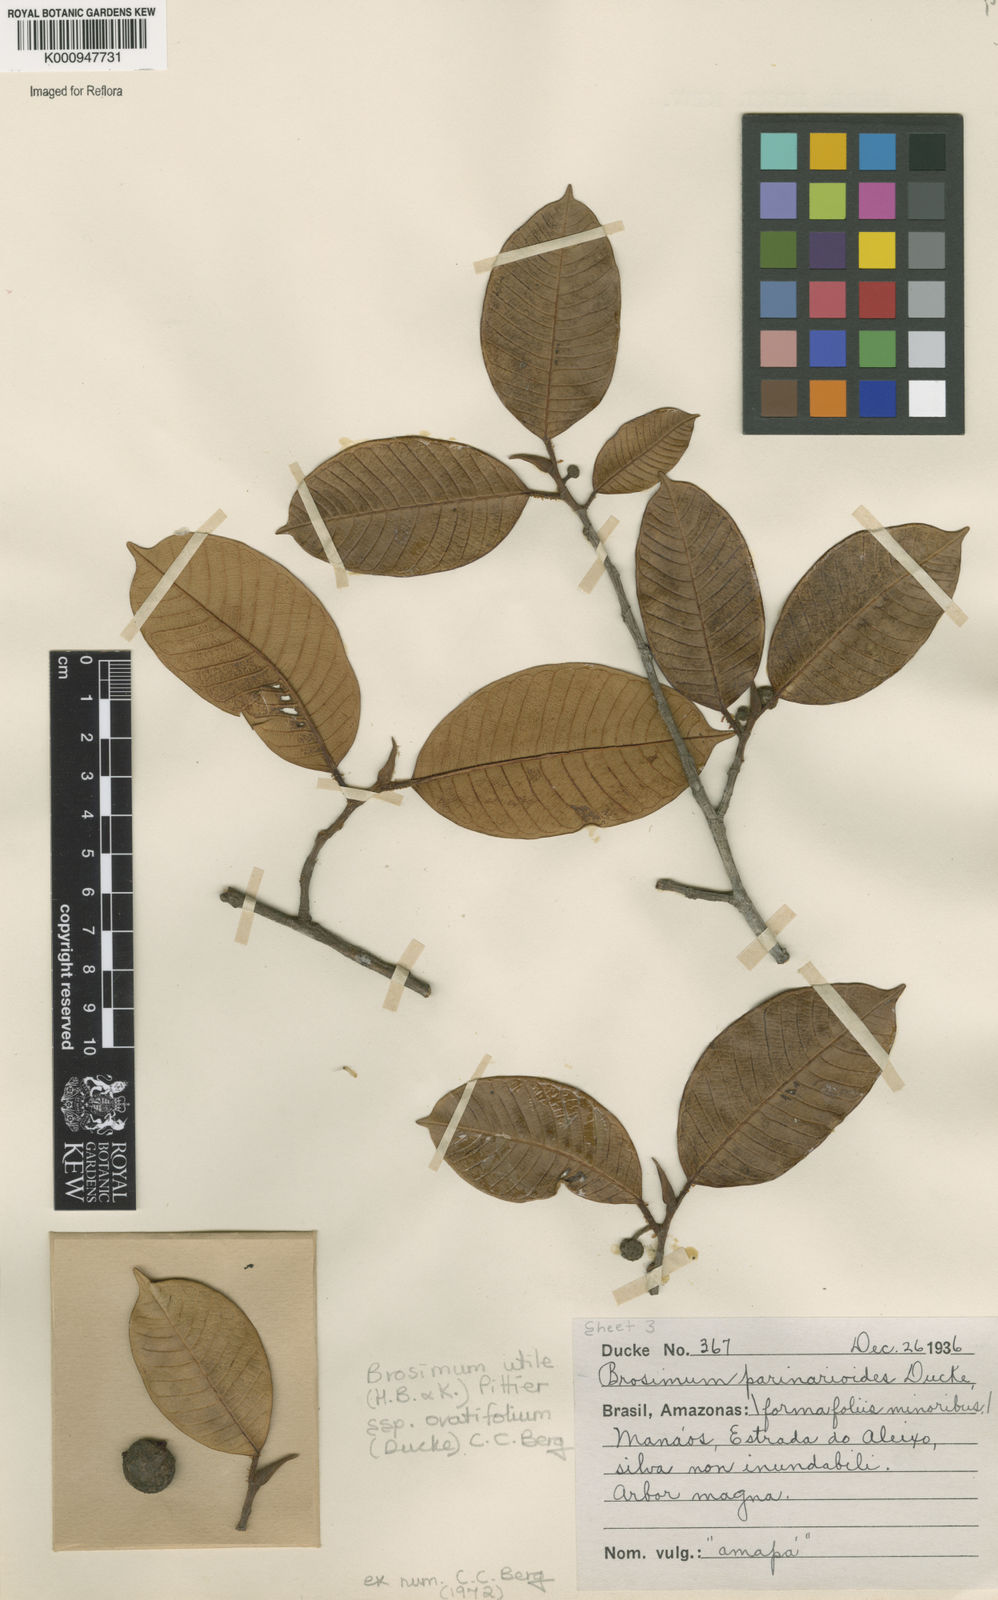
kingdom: Plantae
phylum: Tracheophyta
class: Magnoliopsida
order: Rosales
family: Moraceae
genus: Brosimum
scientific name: Brosimum utile
